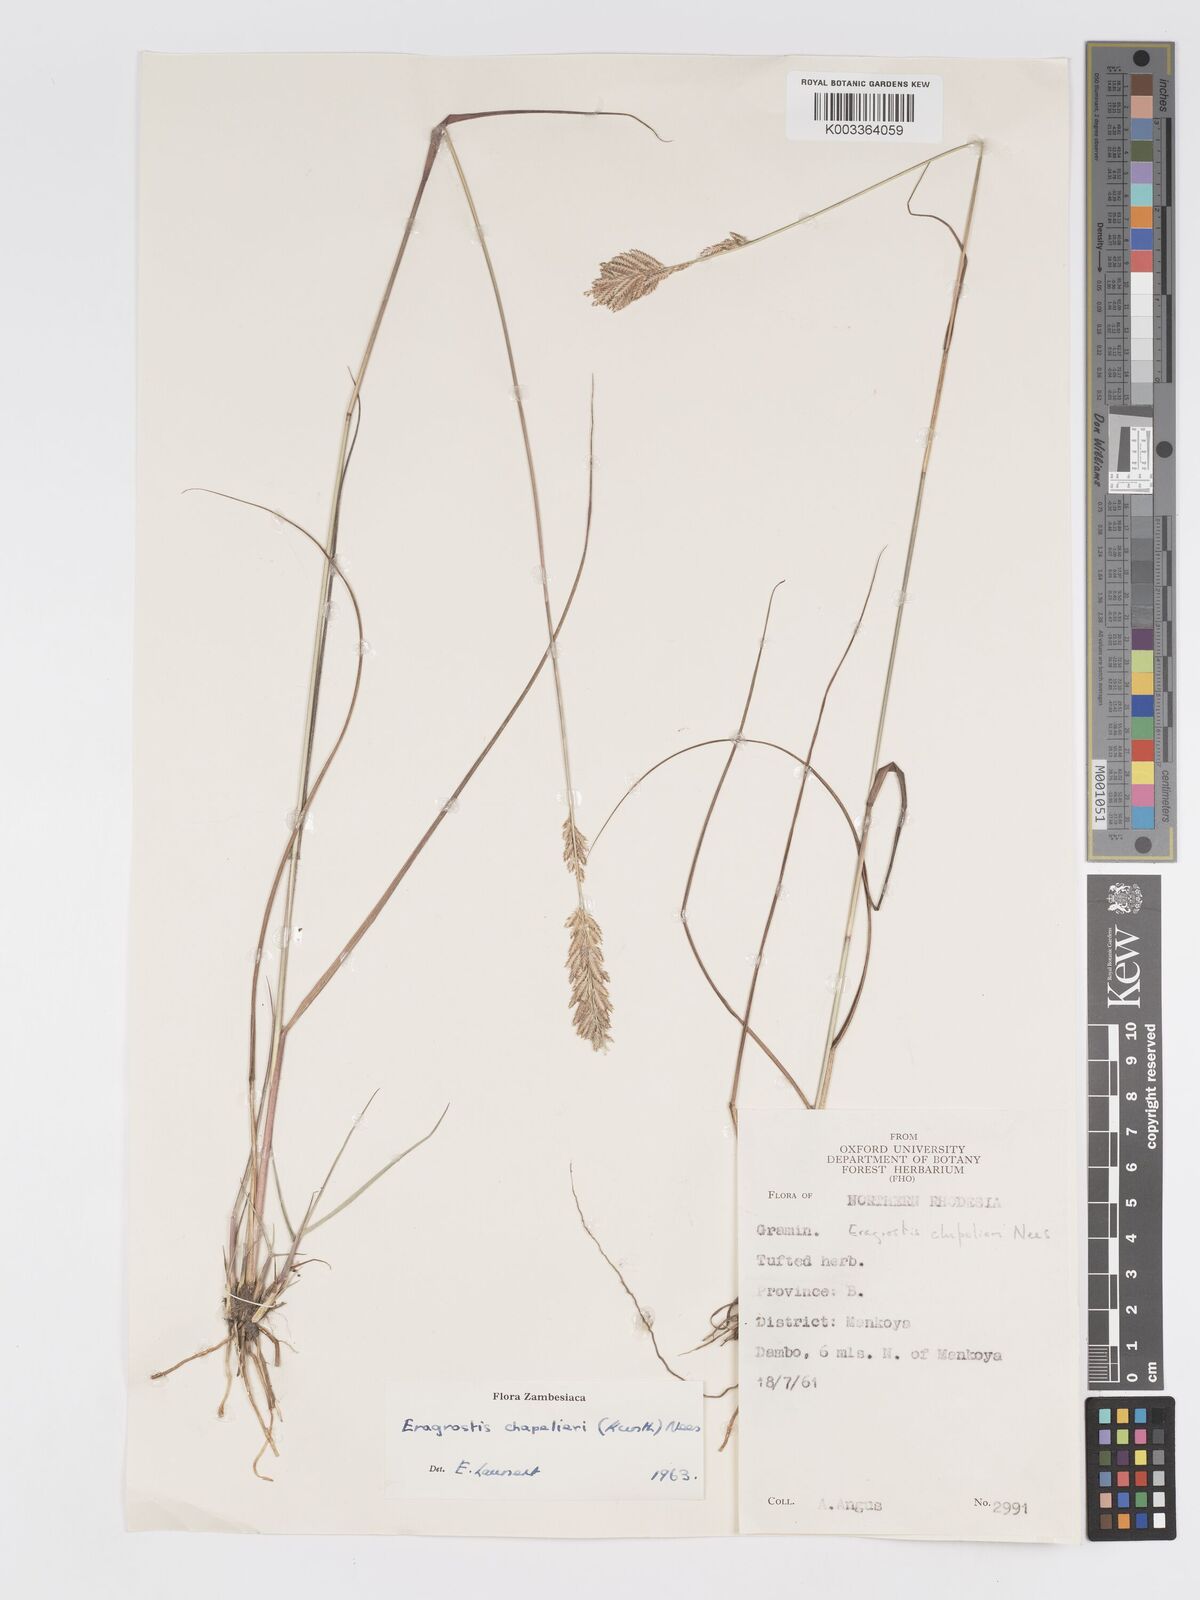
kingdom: Plantae
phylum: Tracheophyta
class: Liliopsida
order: Poales
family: Poaceae
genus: Eragrostis
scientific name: Eragrostis chapelieri
